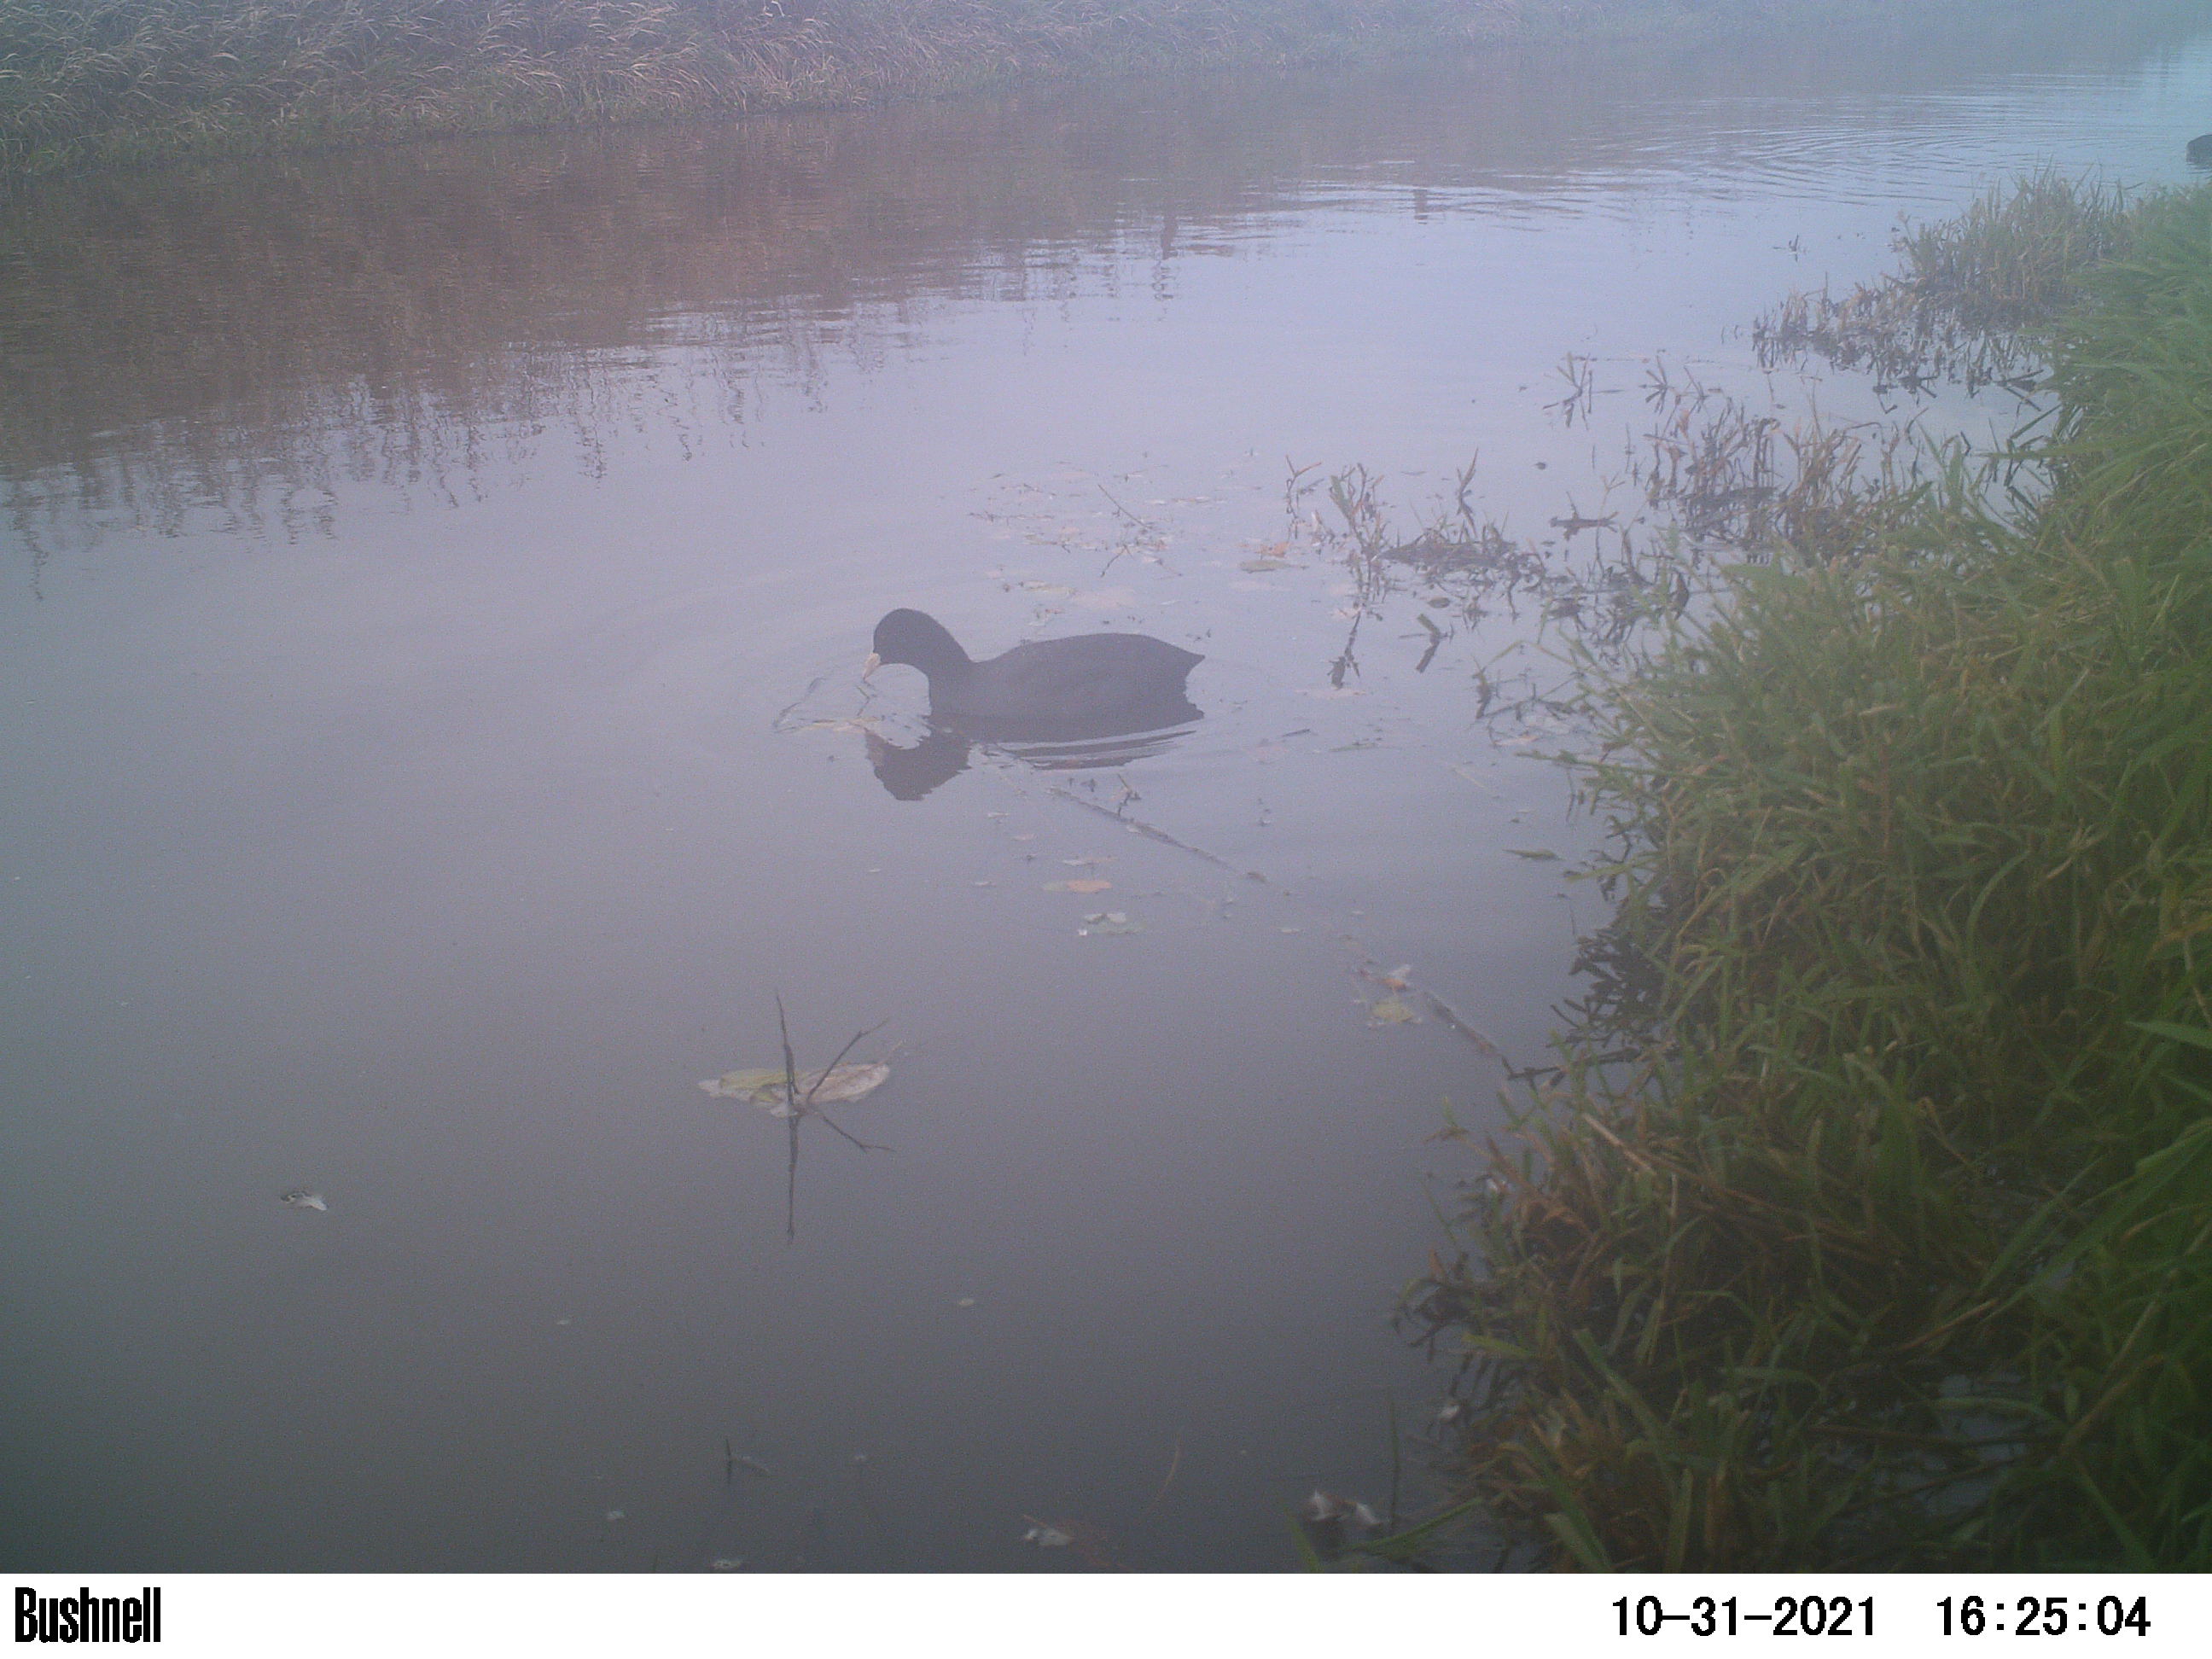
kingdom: Animalia
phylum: Chordata
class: Aves
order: Gruiformes
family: Rallidae
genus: Fulica
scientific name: Fulica atra
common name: Eurasian coot
